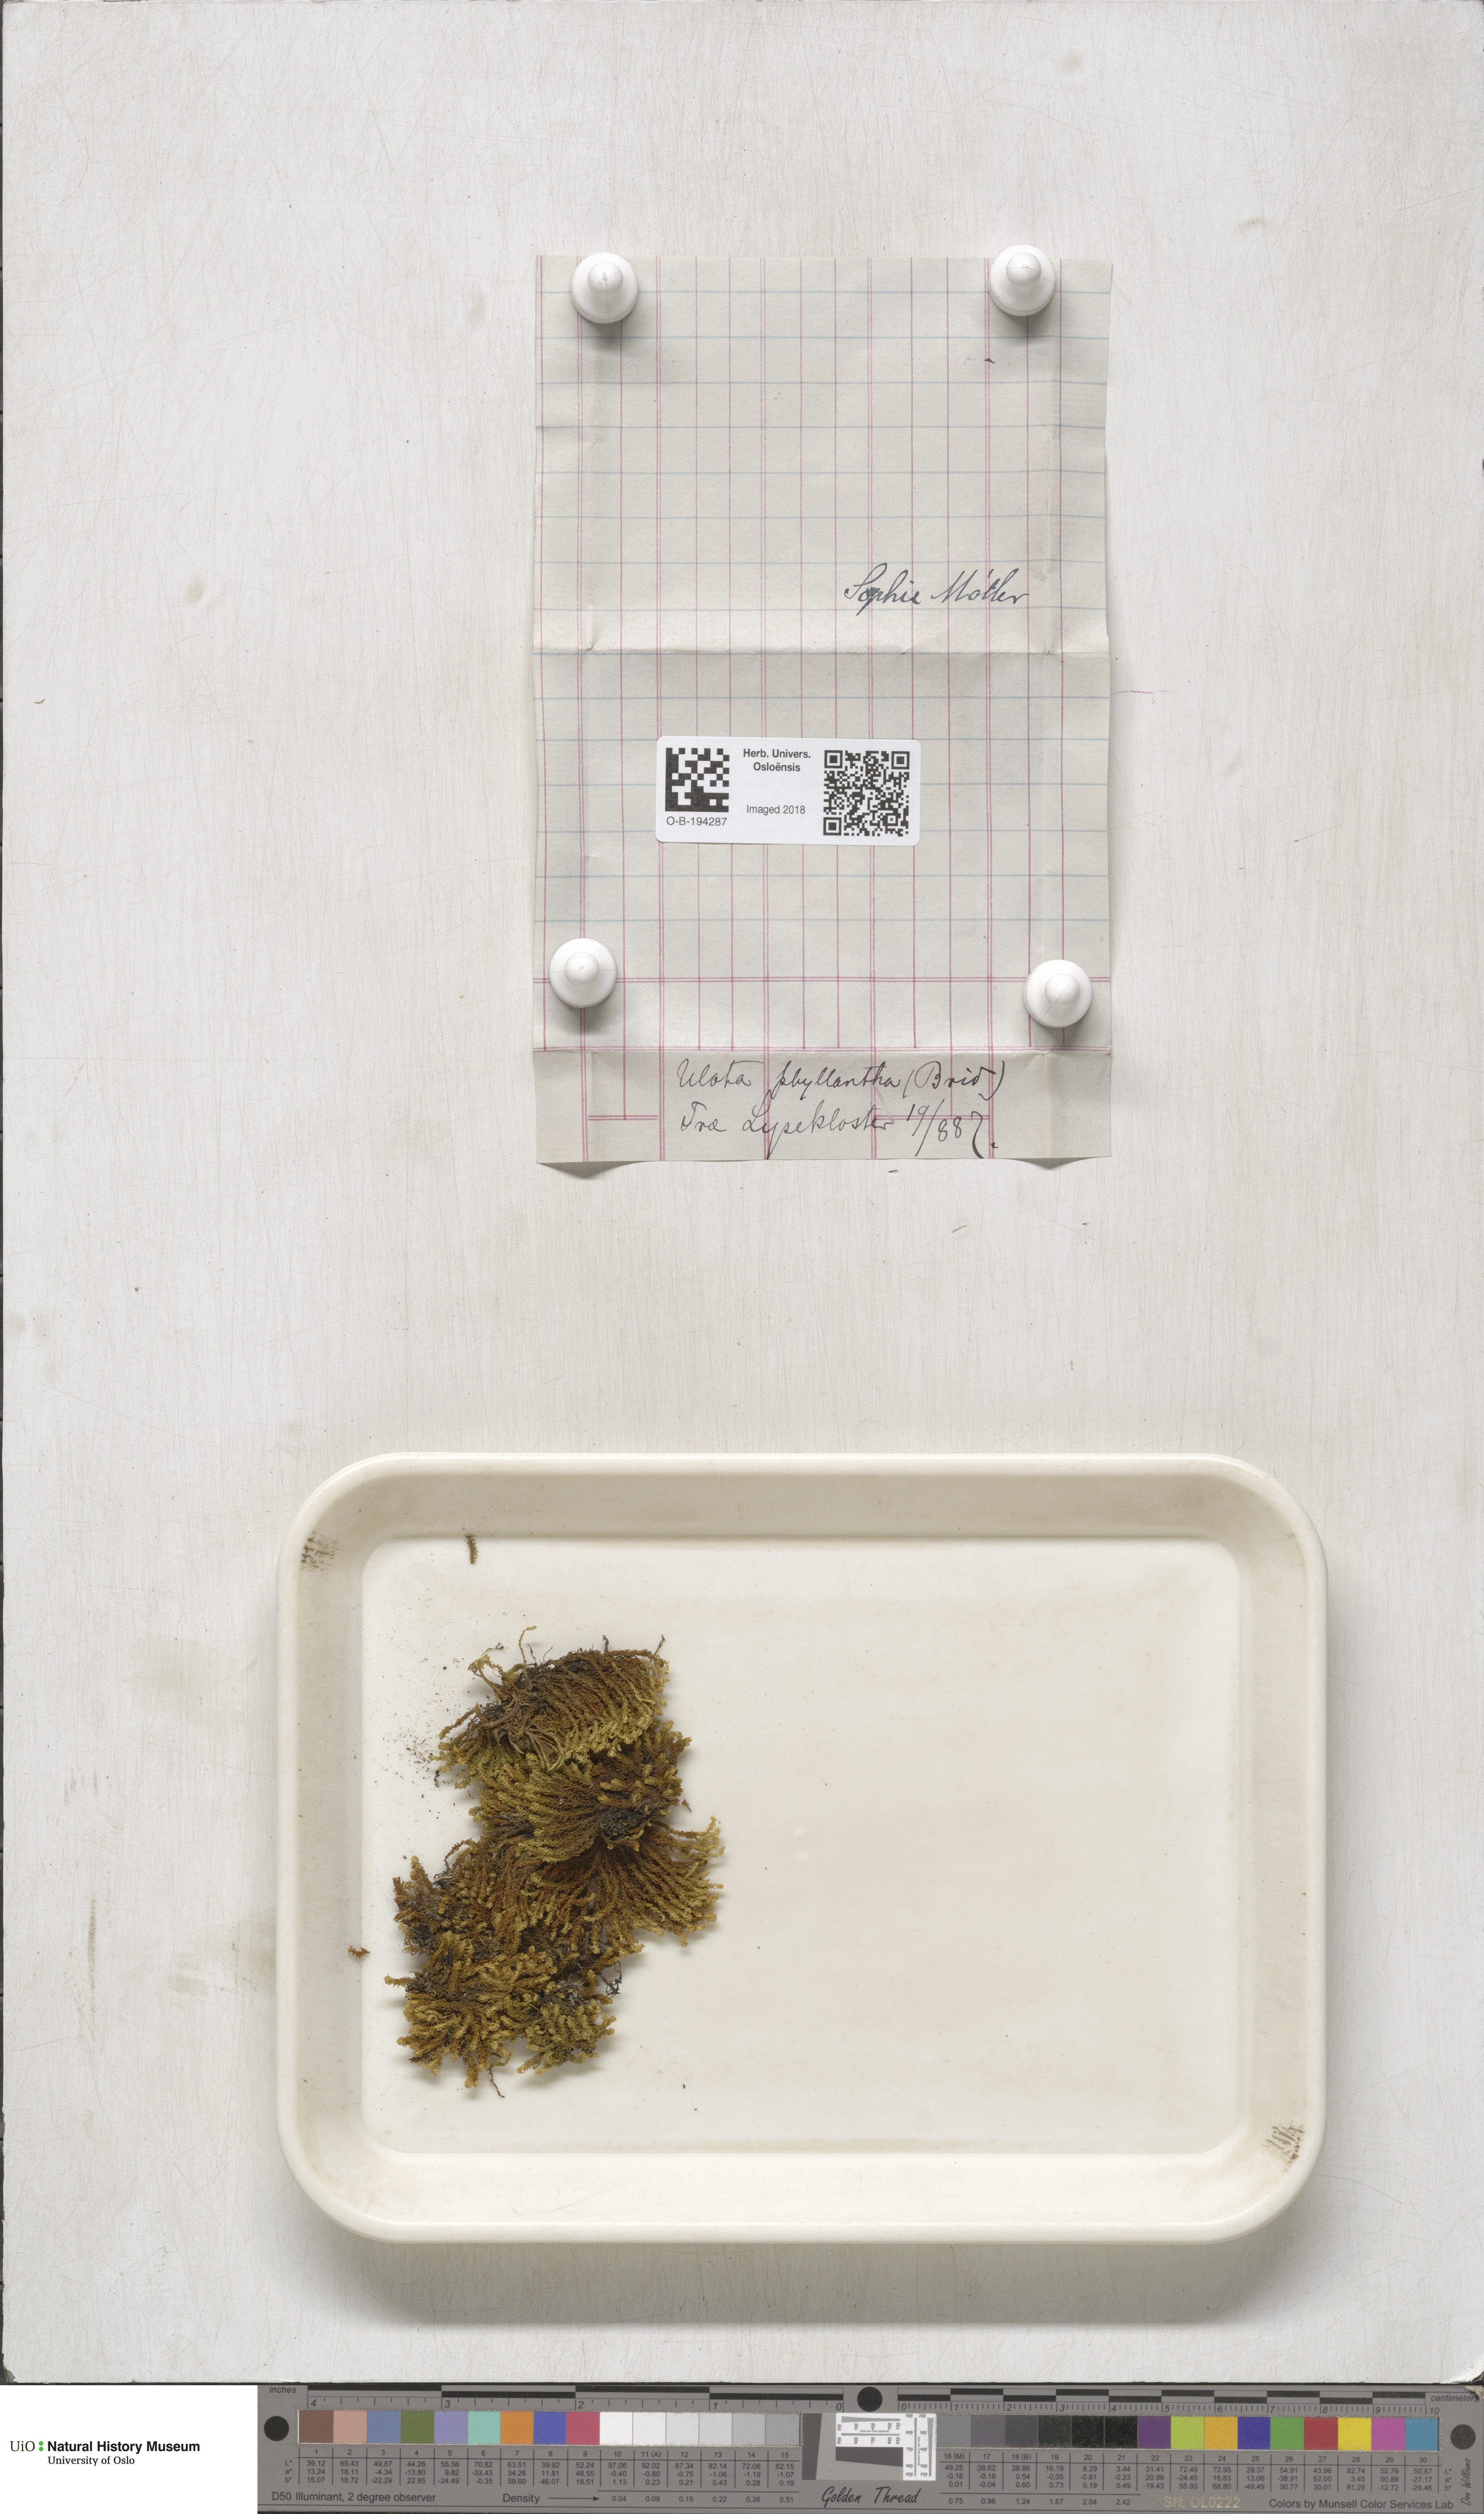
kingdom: Plantae
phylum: Bryophyta
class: Bryopsida
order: Orthotrichales
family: Orthotrichaceae
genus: Plenogemma
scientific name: Plenogemma phyllantha
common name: Frizzled pincushion
